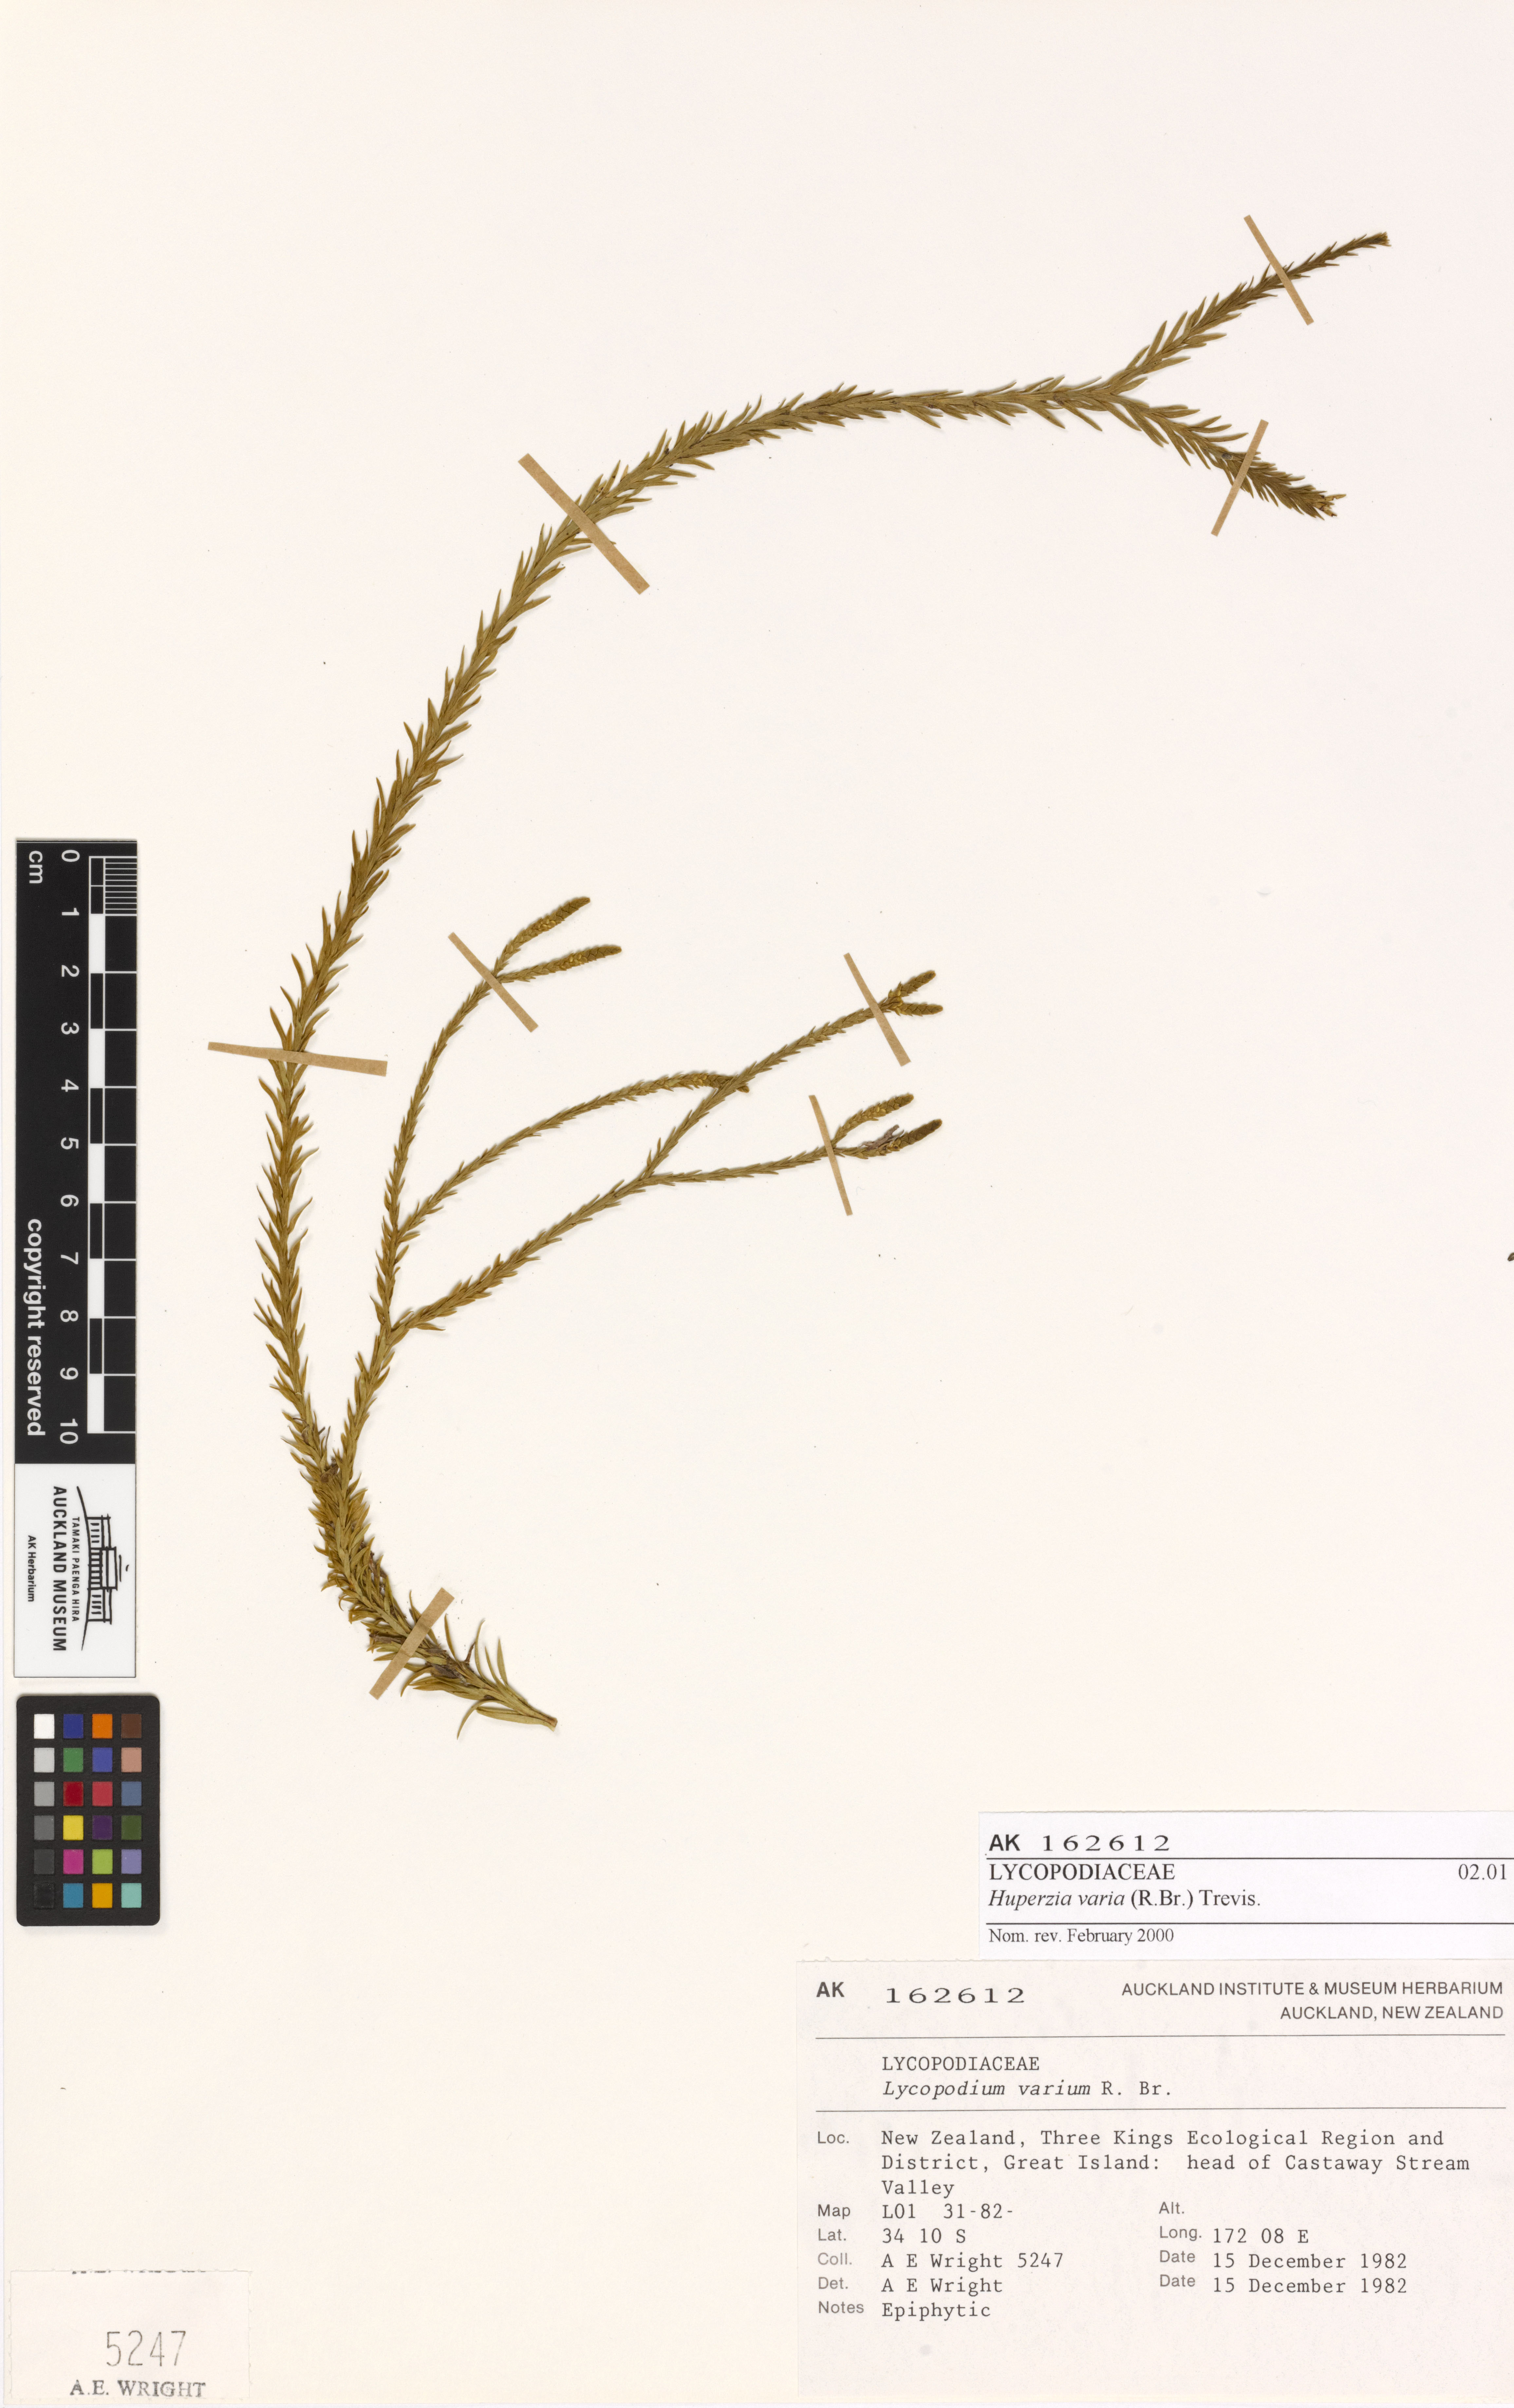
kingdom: Plantae
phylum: Tracheophyta
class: Lycopodiopsida
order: Lycopodiales
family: Lycopodiaceae
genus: Phlegmariurus
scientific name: Phlegmariurus billardierei
